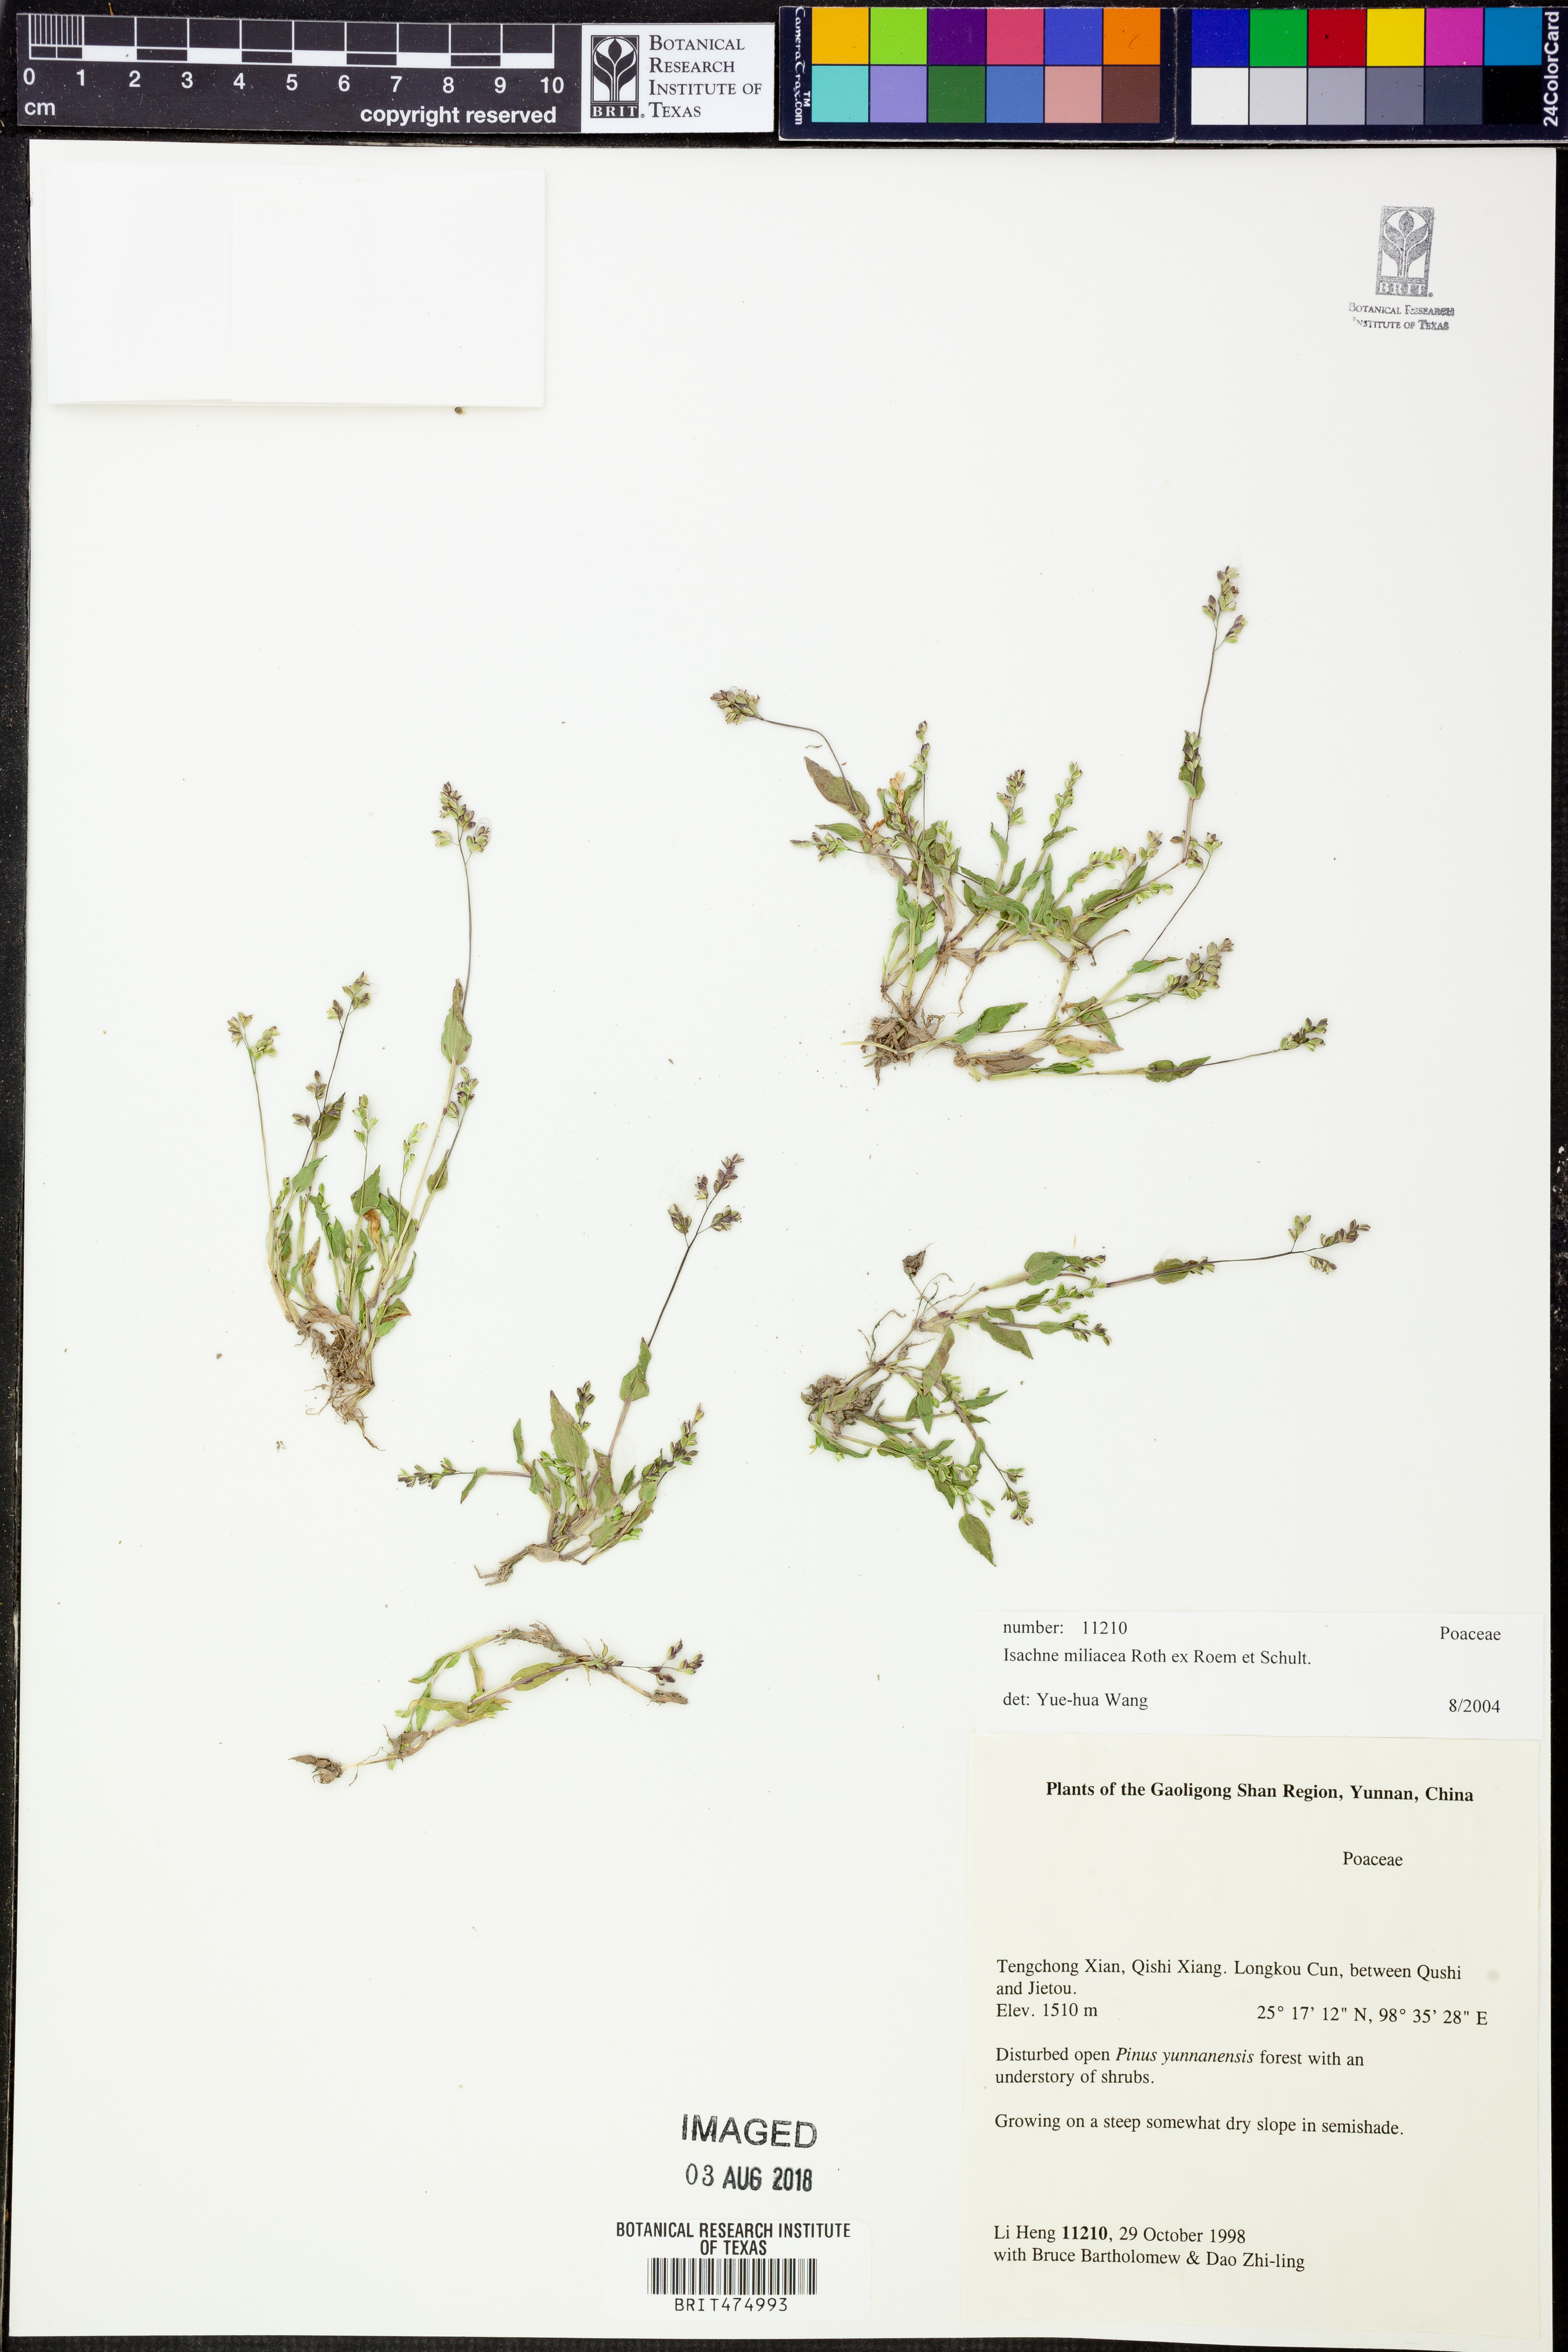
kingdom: Plantae
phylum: Tracheophyta
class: Liliopsida
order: Poales
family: Poaceae
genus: Isachne
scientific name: Isachne globosa
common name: Swamp millet
